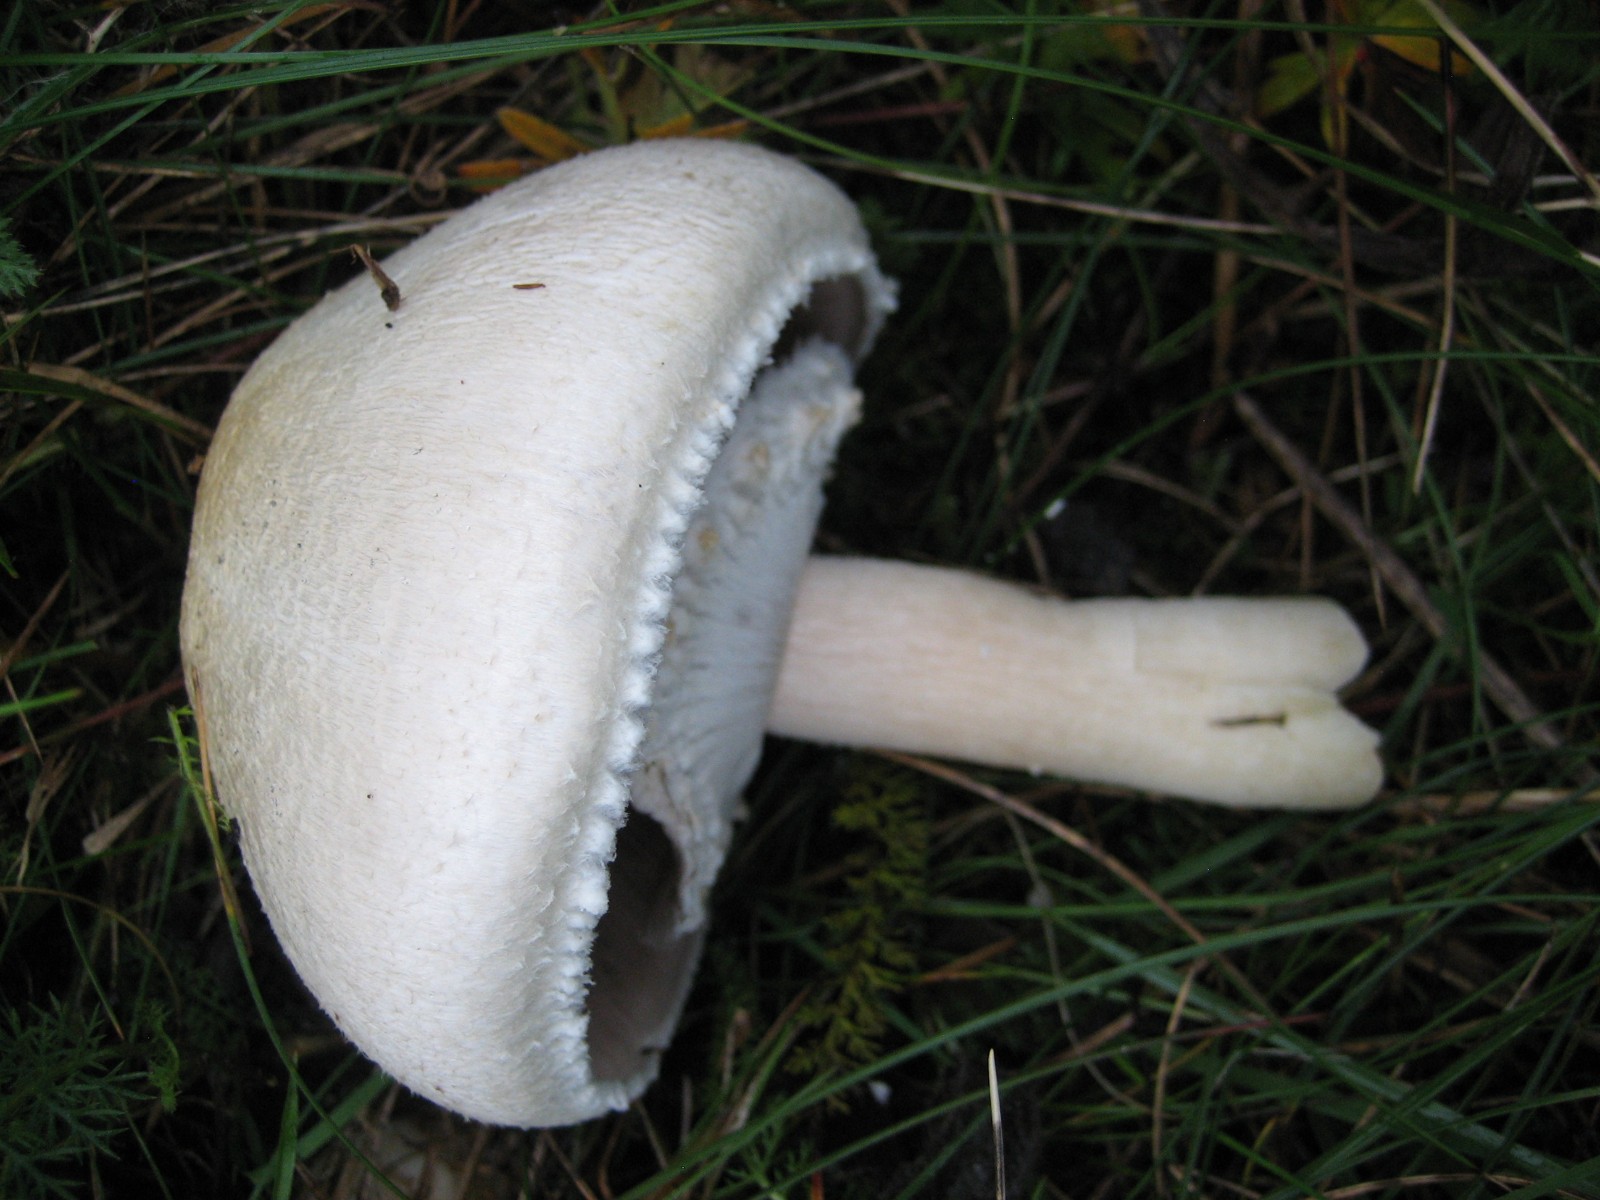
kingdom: Fungi
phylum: Basidiomycota
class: Agaricomycetes
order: Agaricales
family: Agaricaceae
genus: Agaricus
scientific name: Agaricus
